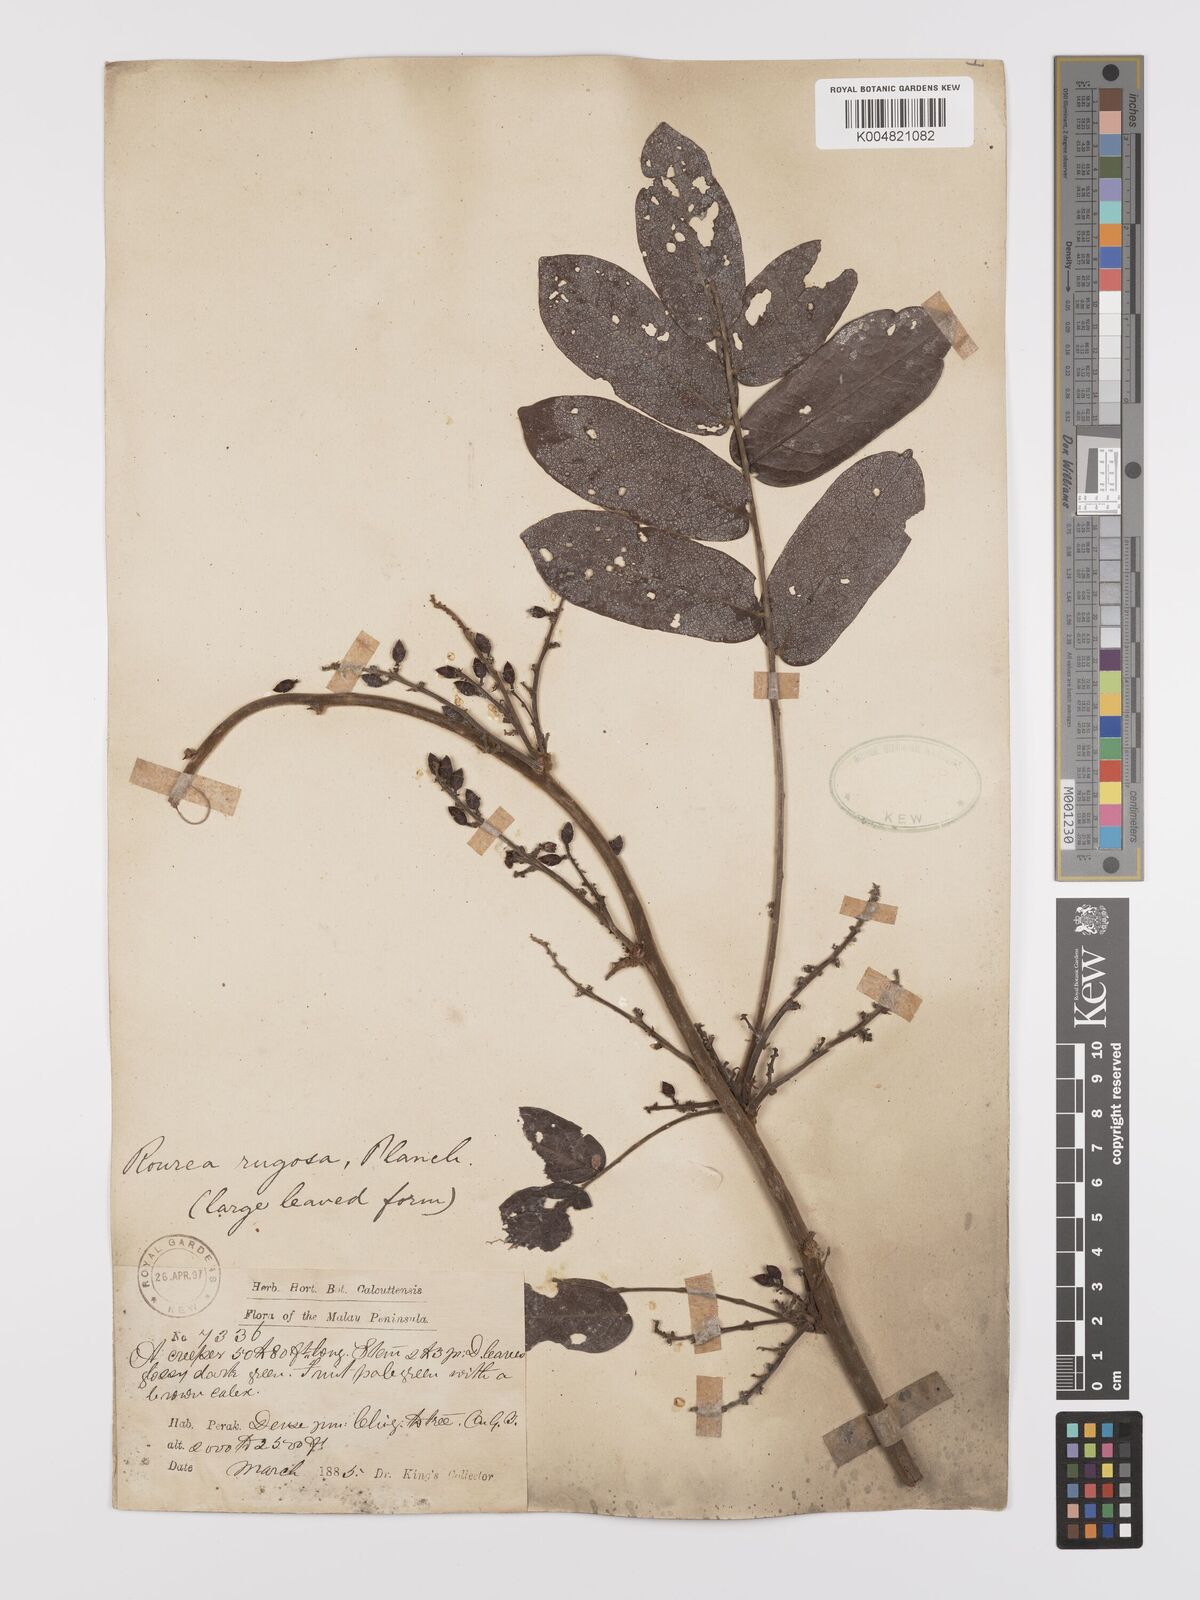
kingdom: Plantae
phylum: Tracheophyta
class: Magnoliopsida
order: Oxalidales
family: Connaraceae
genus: Rourea
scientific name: Rourea rugosa
